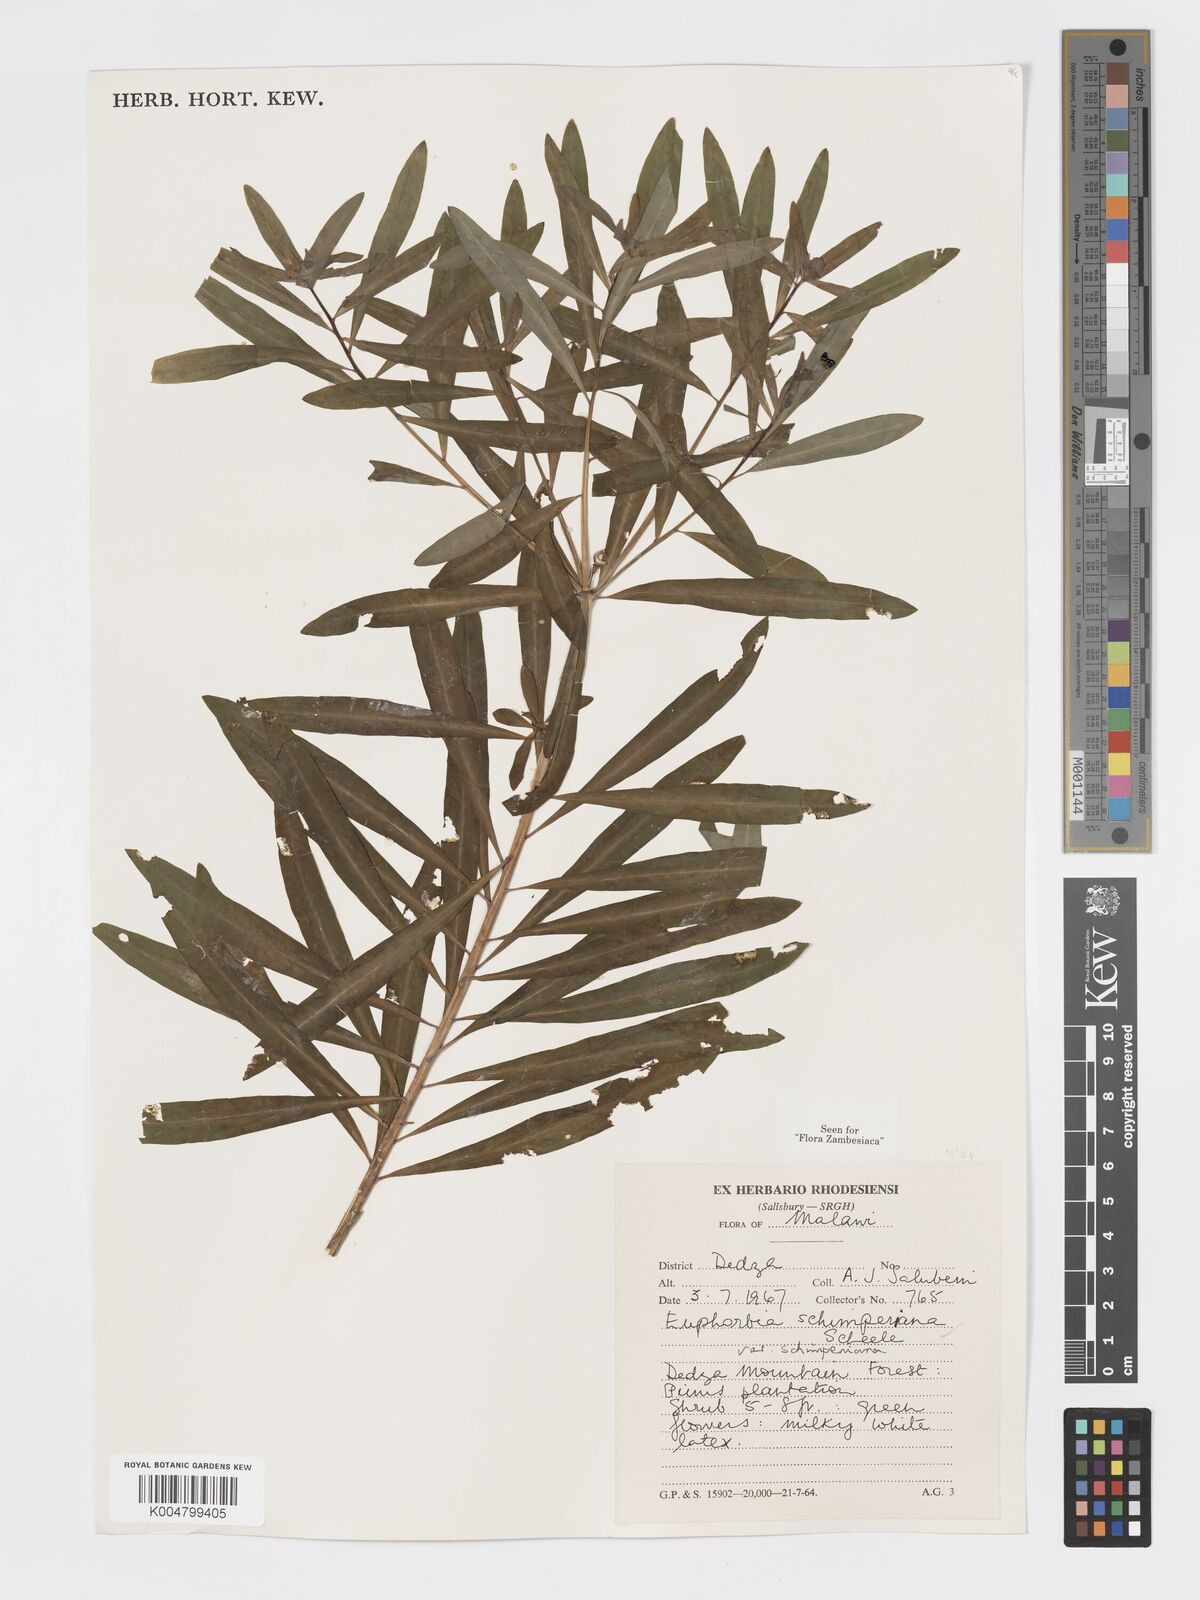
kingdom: Plantae
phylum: Tracheophyta
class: Magnoliopsida
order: Malpighiales
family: Euphorbiaceae
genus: Euphorbia
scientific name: Euphorbia schimperiana
